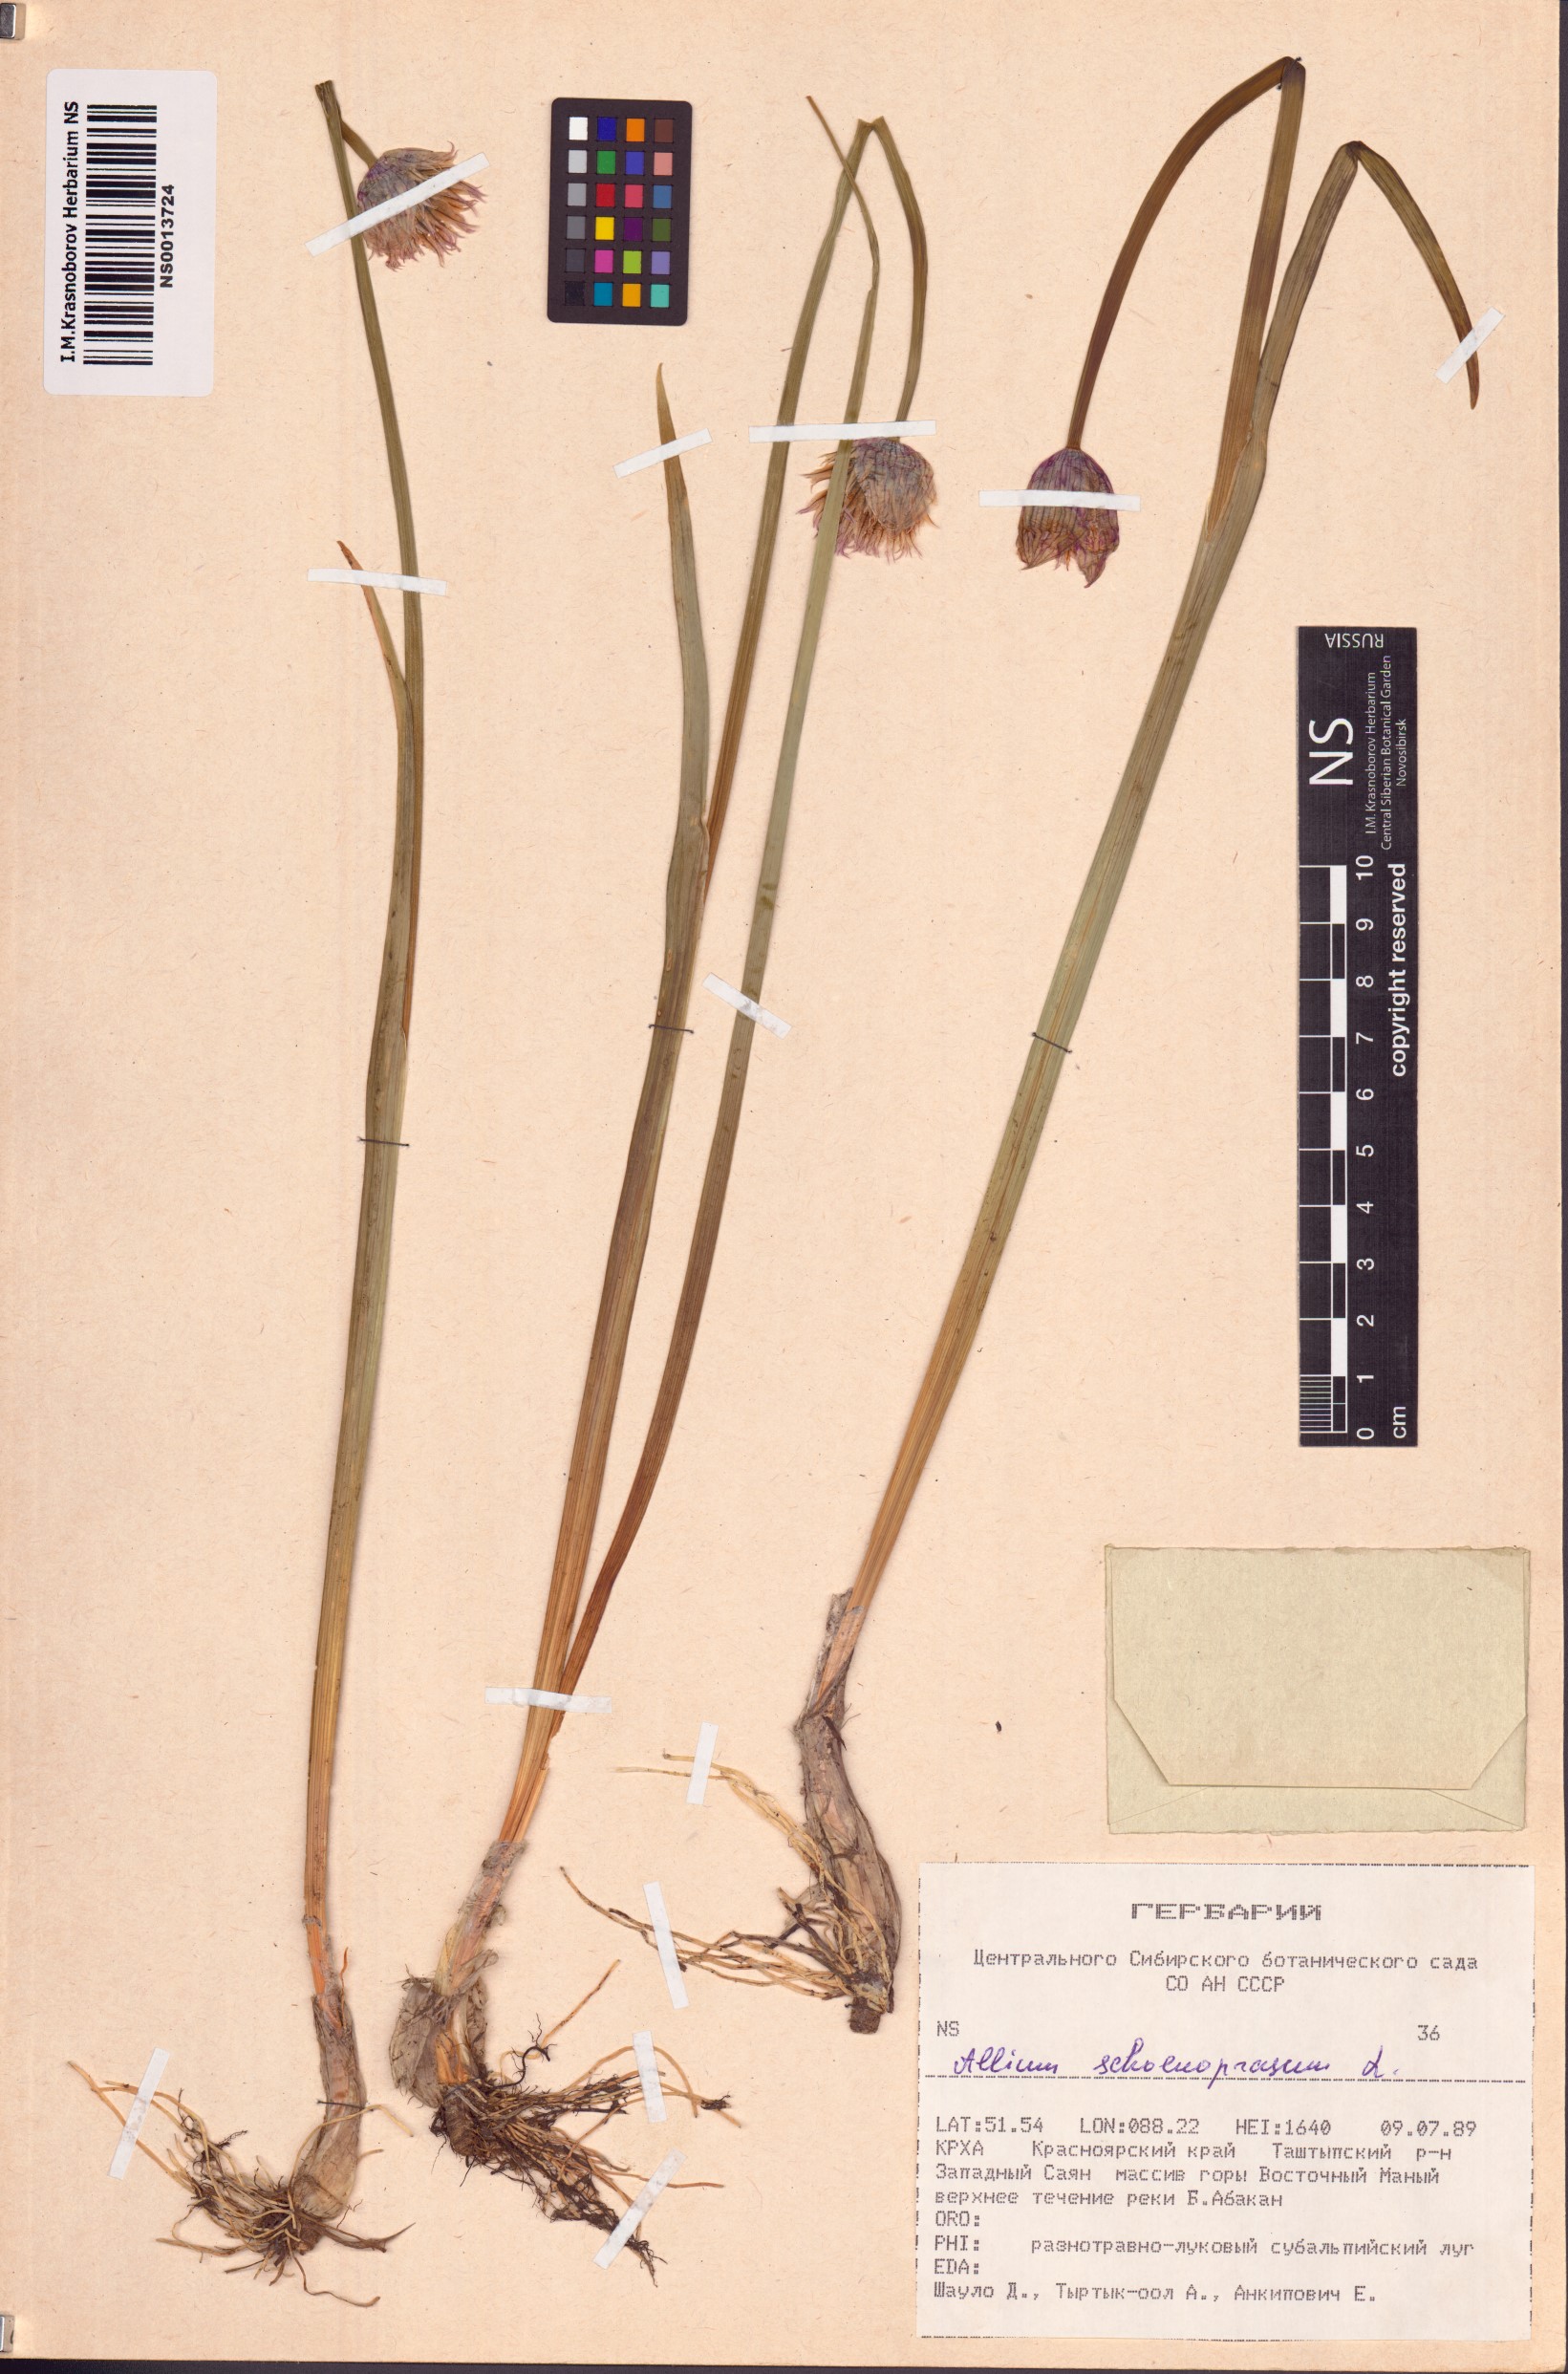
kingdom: Plantae
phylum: Tracheophyta
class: Liliopsida
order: Asparagales
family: Amaryllidaceae
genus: Allium
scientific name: Allium schoenoprasum
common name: Chives
